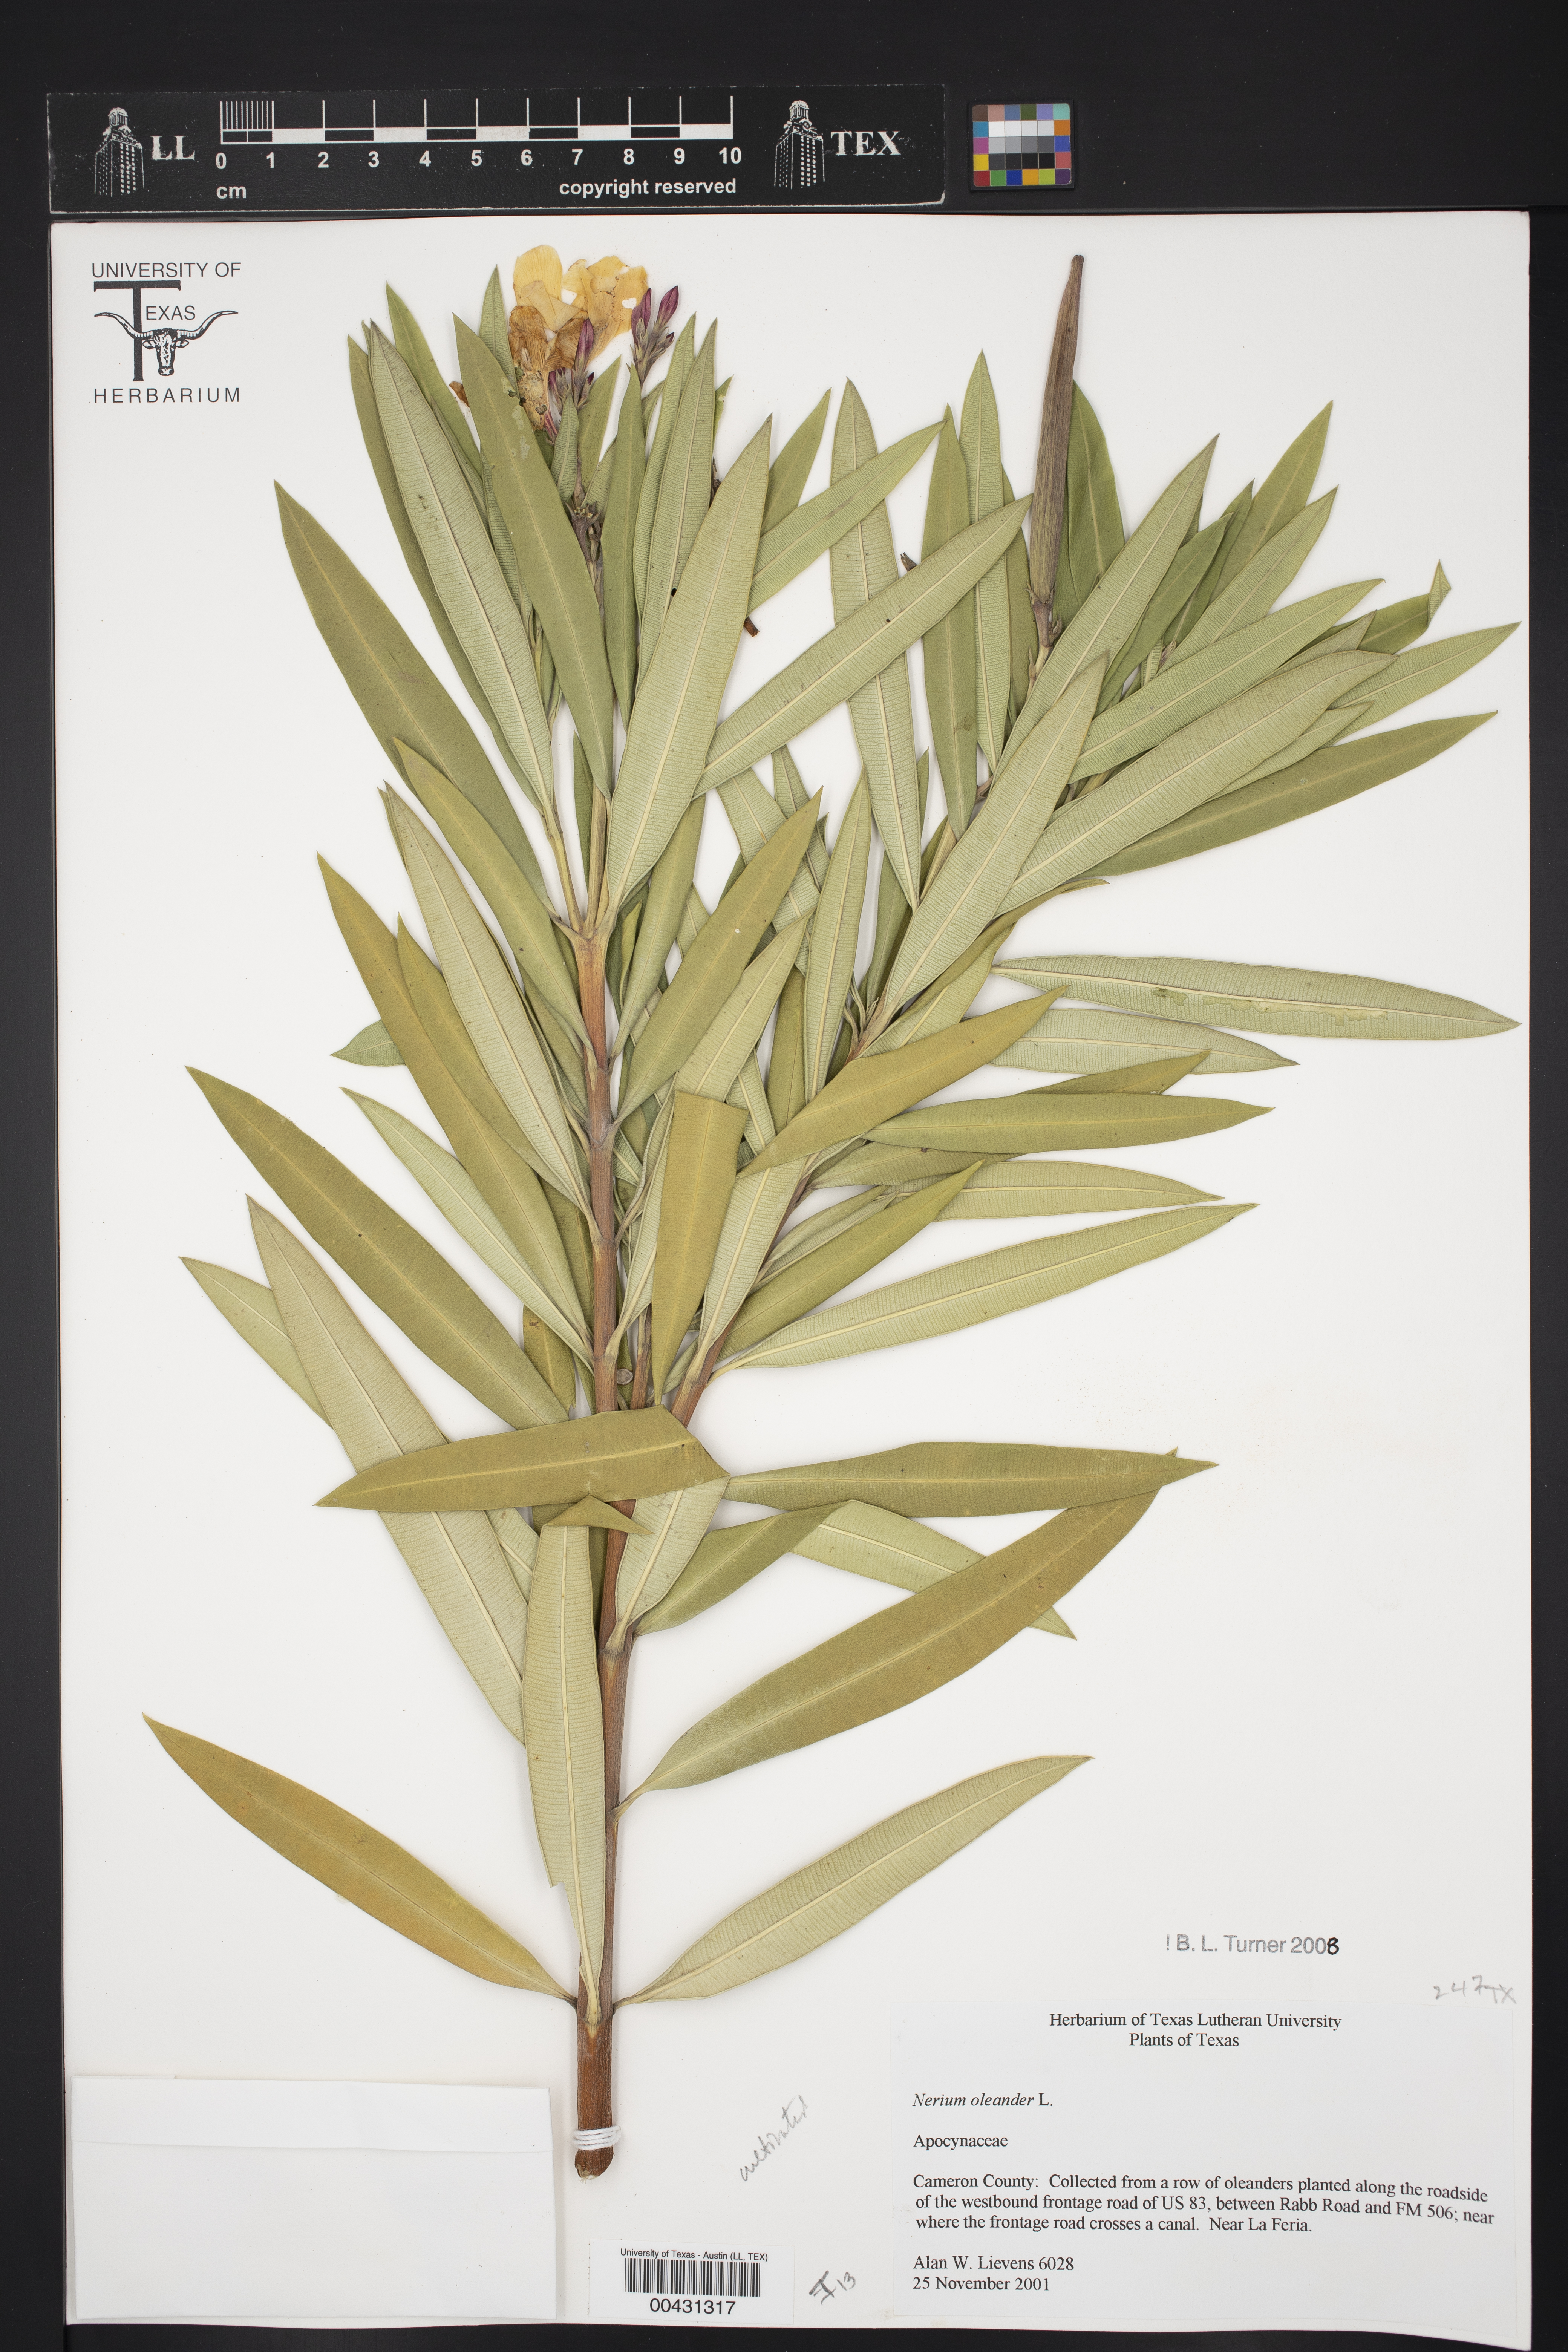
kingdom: Plantae
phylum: Tracheophyta
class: Magnoliopsida
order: Gentianales
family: Apocynaceae
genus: Nerium
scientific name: Nerium oleander
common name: Oleander
